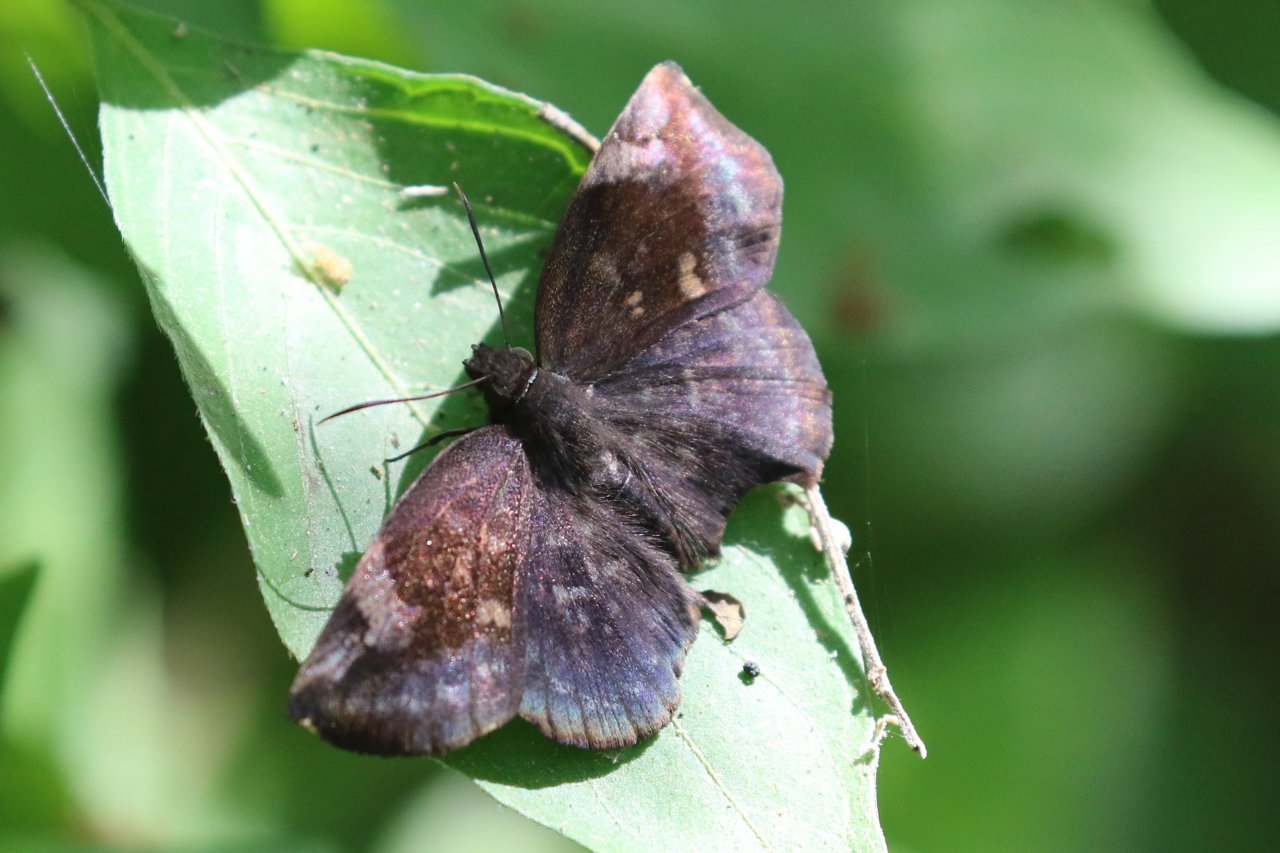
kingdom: Animalia
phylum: Arthropoda
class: Insecta
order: Lepidoptera
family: Hesperiidae
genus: Achlyodes
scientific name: Achlyodes thraso
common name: Sickle-winged Skipper
